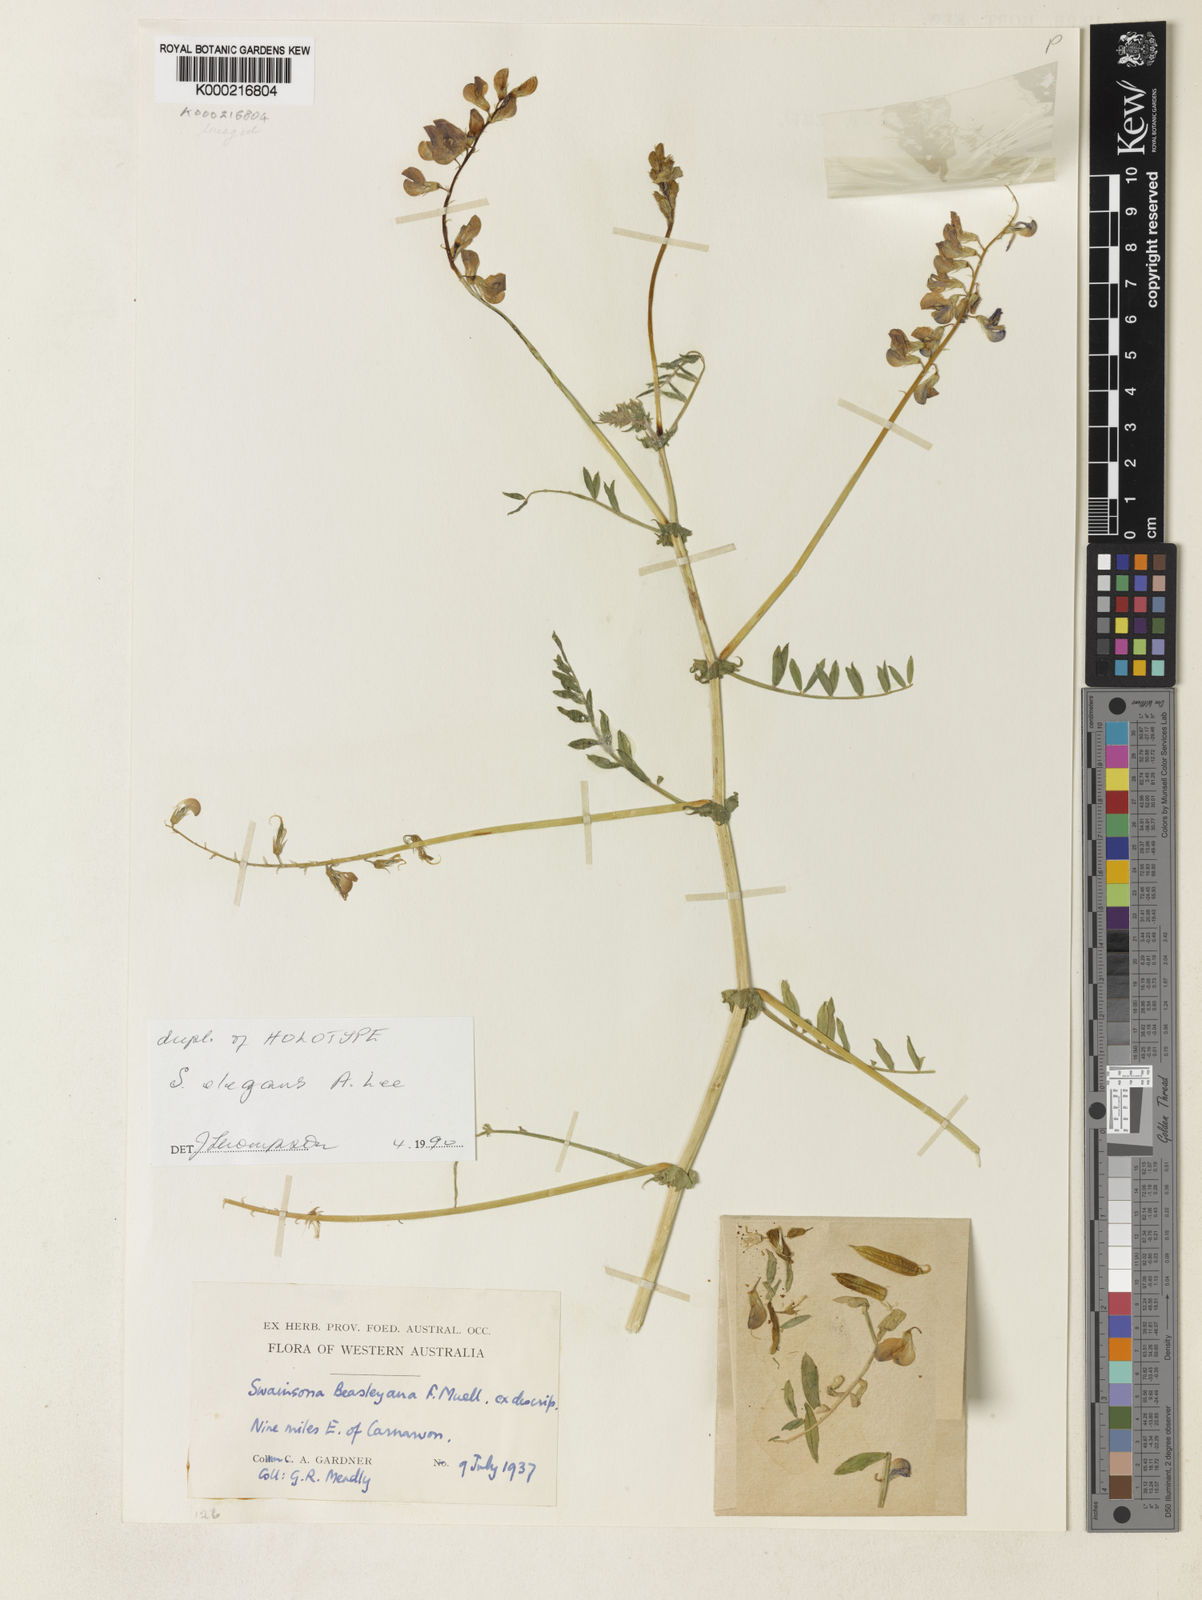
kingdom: Plantae
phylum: Tracheophyta
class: Magnoliopsida
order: Fabales
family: Fabaceae
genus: Swainsona
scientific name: Swainsona elegans
